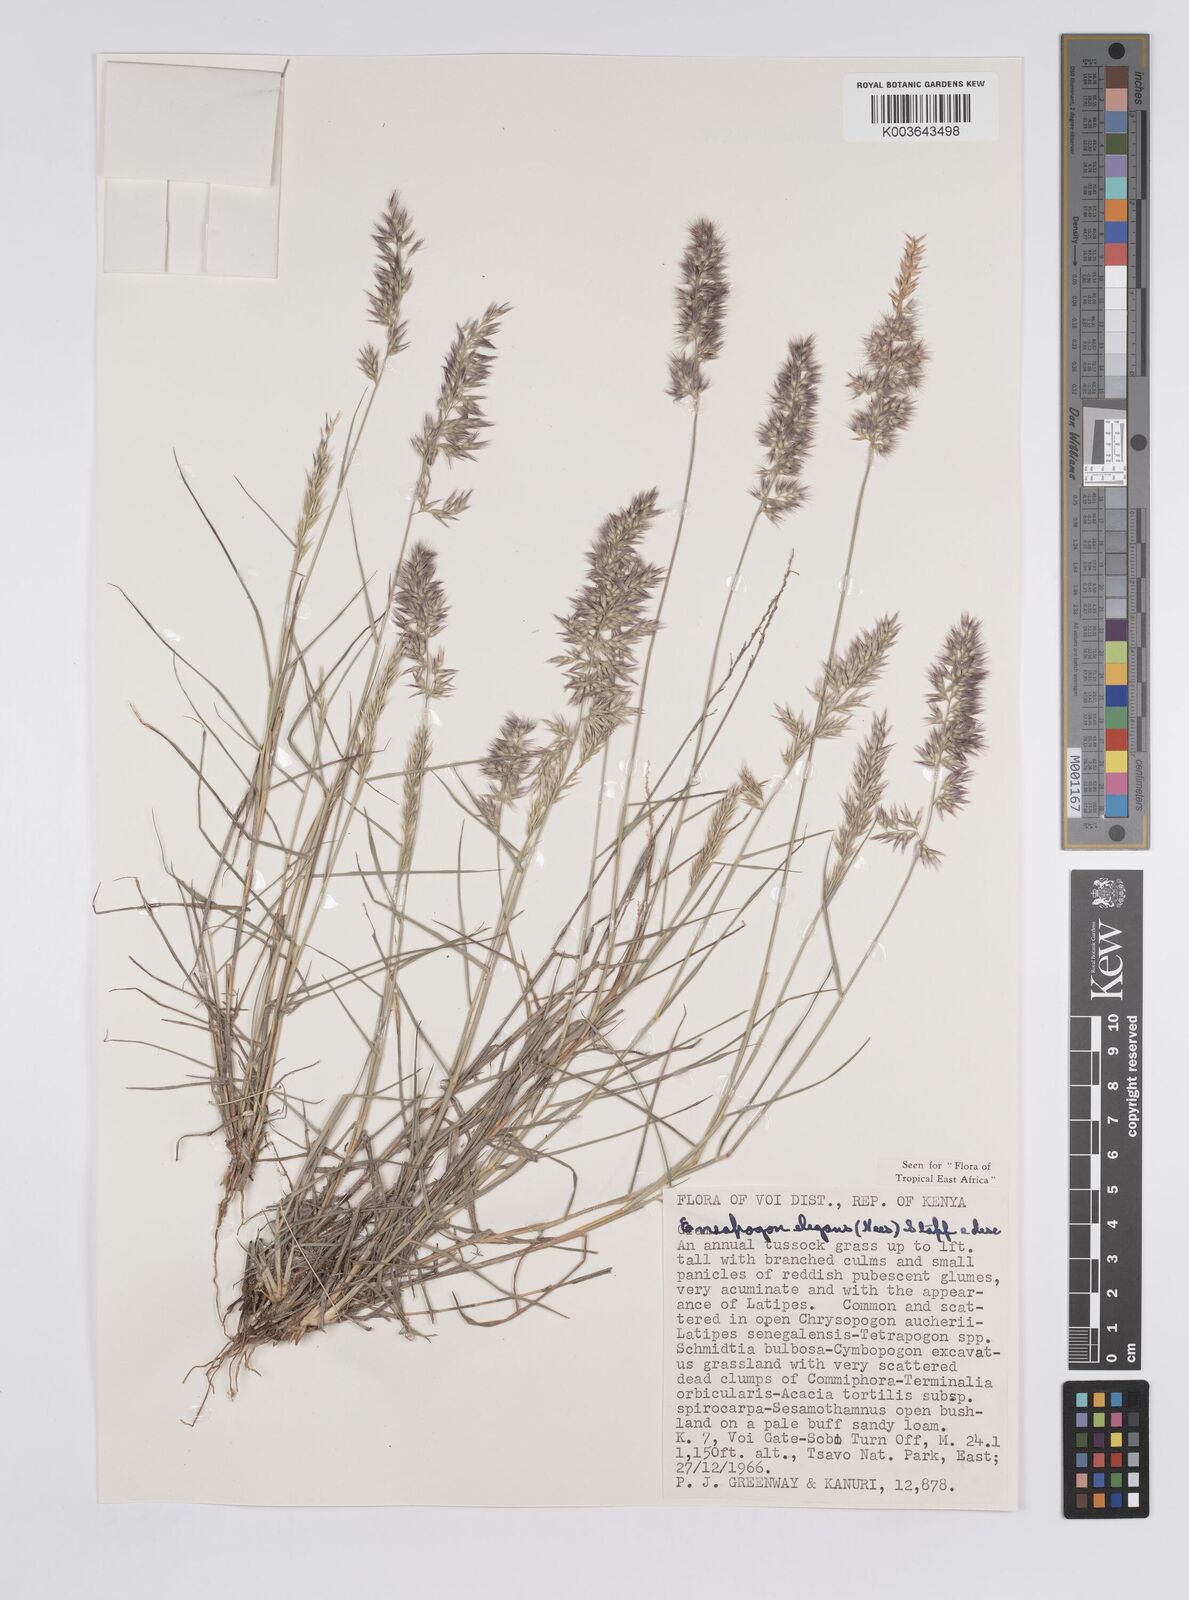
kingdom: Plantae
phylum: Tracheophyta
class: Liliopsida
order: Poales
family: Poaceae
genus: Enneapogon
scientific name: Enneapogon persicus
